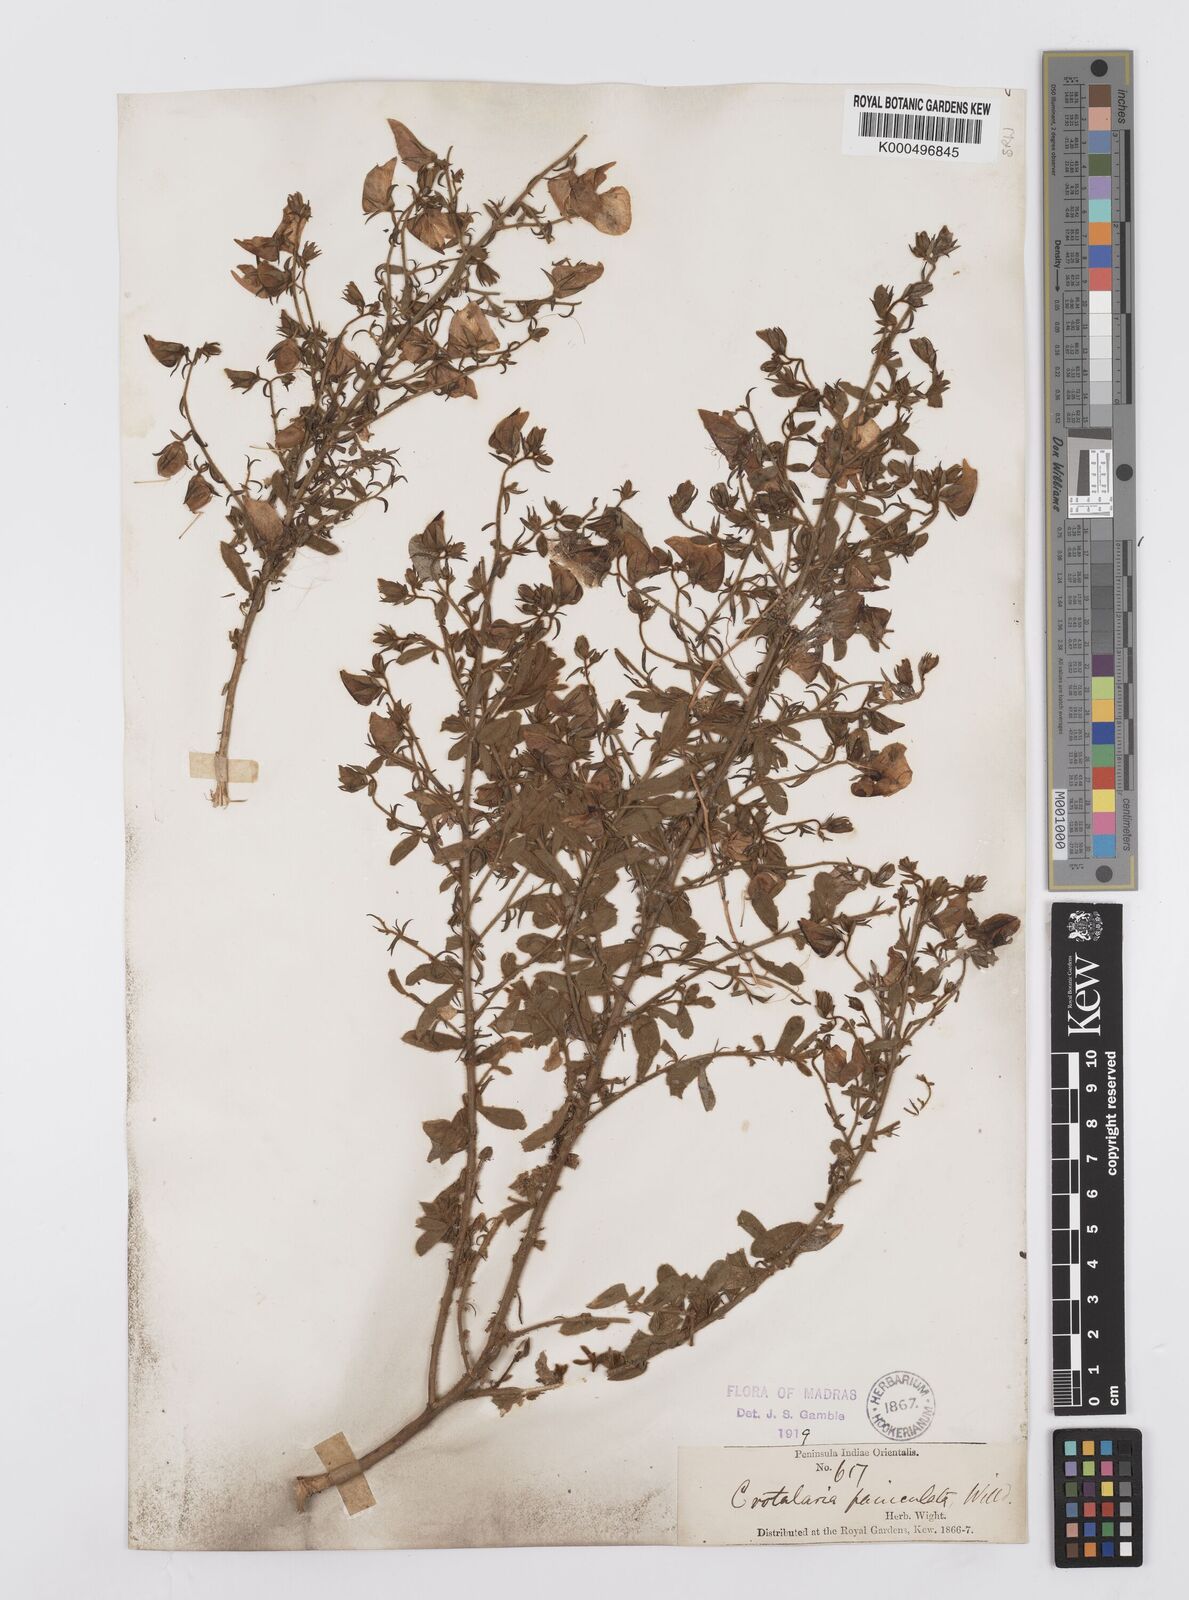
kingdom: Plantae
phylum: Tracheophyta
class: Magnoliopsida
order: Fabales
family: Fabaceae
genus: Crotalaria
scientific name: Crotalaria paniculata
